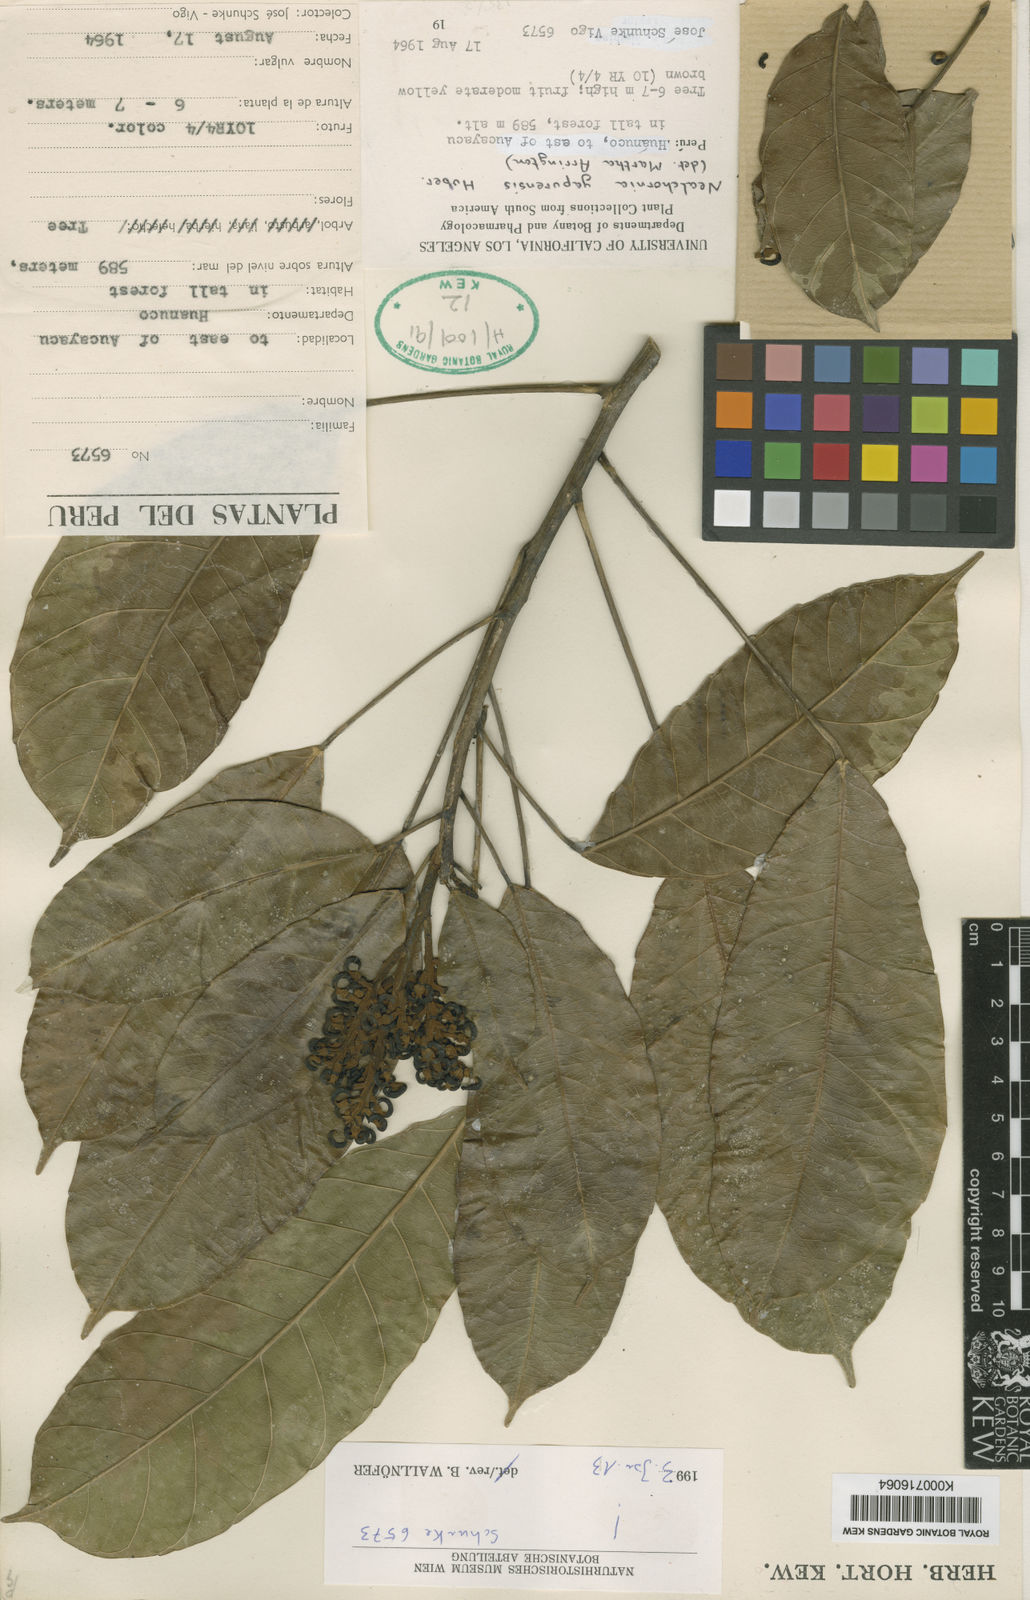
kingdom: Plantae
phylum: Tracheophyta
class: Magnoliopsida
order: Malpighiales
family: Euphorbiaceae
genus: Nealchornea
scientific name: Nealchornea yapurensis
